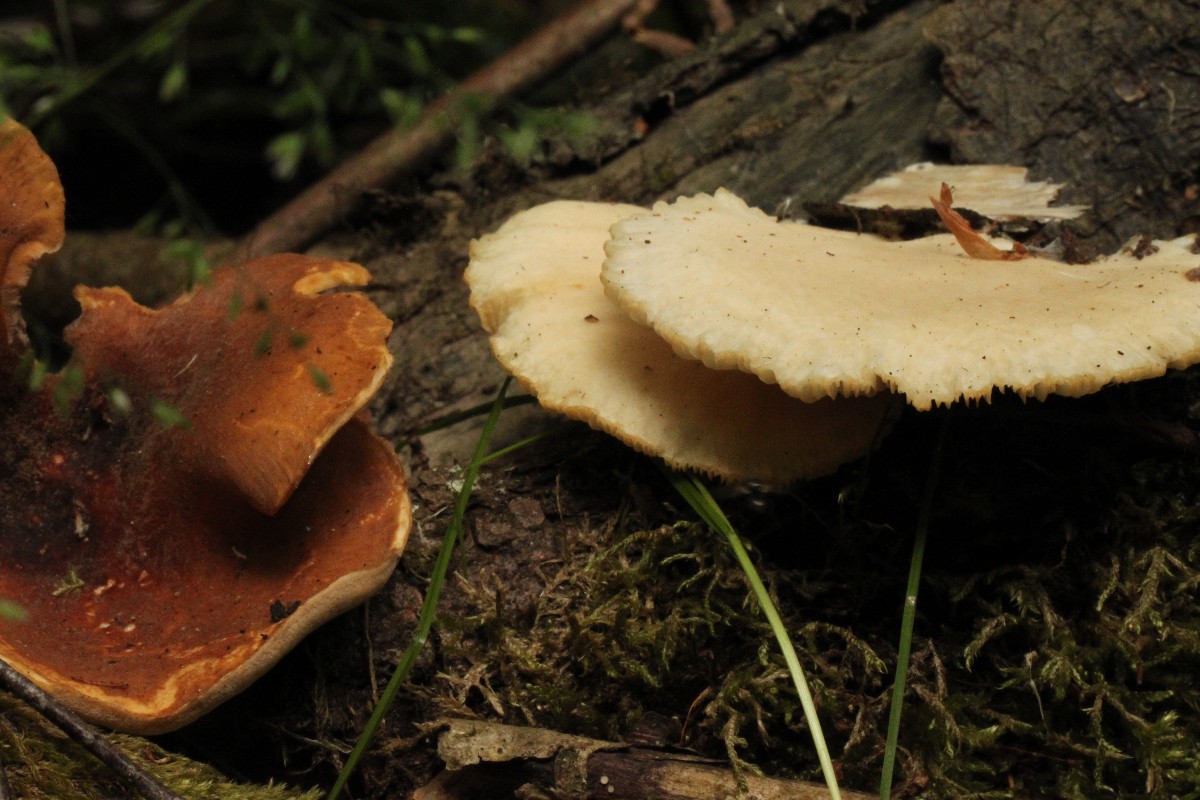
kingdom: Fungi
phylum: Basidiomycota
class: Agaricomycetes
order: Polyporales
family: Polyporaceae
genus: Picipes
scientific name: Picipes tubaeformis
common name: trompet-stilkporesvamp
